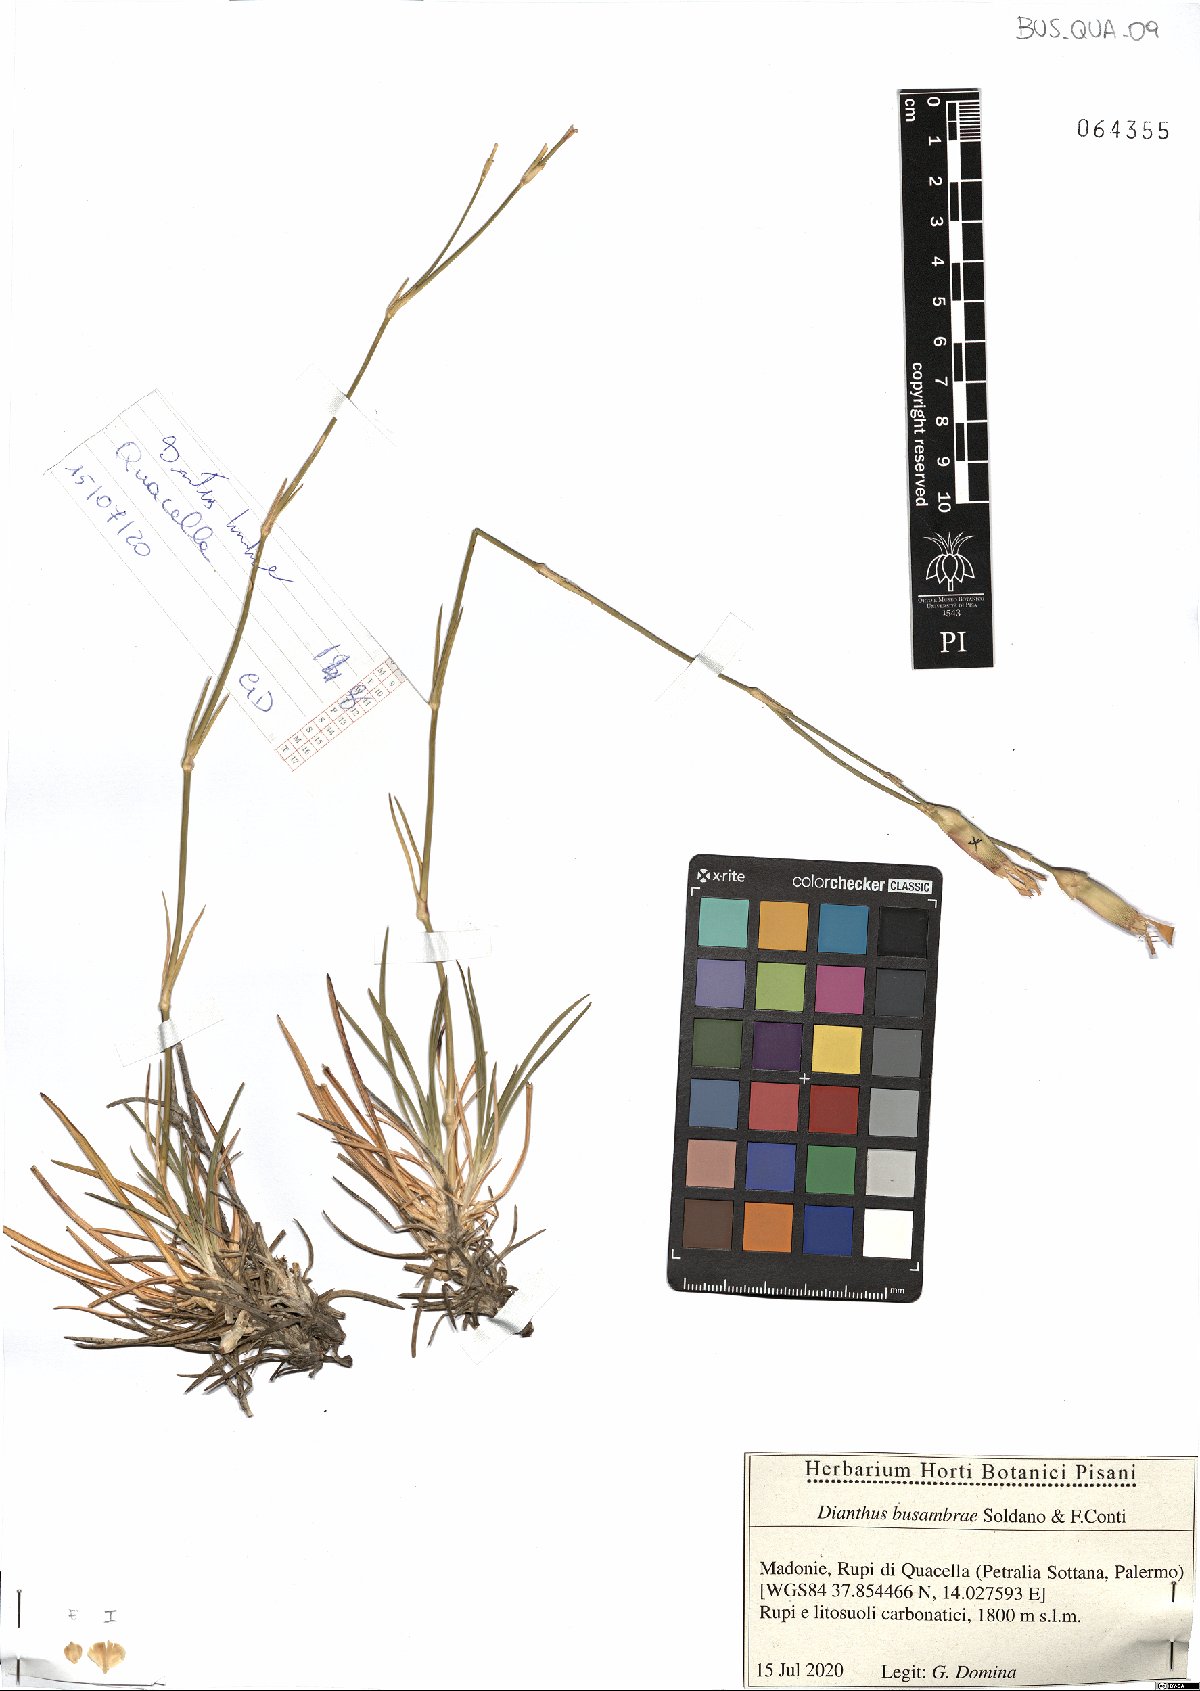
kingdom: Plantae
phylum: Tracheophyta
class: Magnoliopsida
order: Caryophyllales
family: Caryophyllaceae
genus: Dianthus
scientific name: Dianthus busambrae
